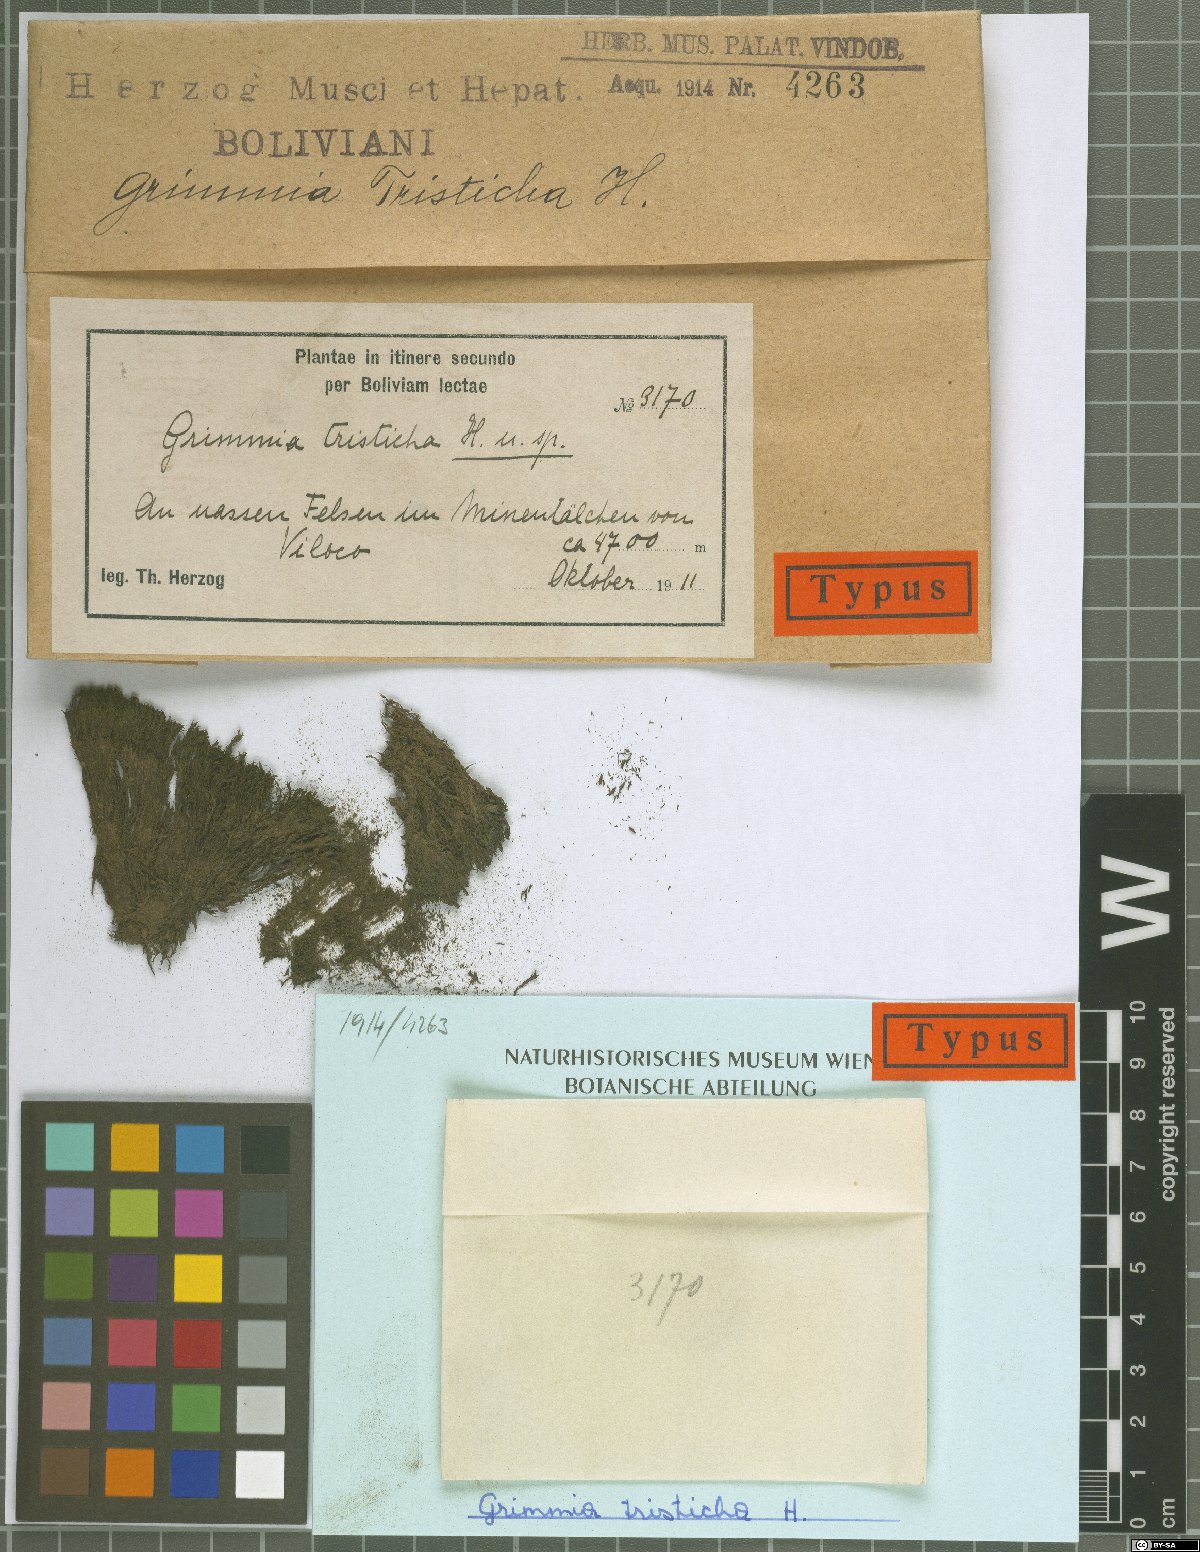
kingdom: Plantae
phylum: Bryophyta
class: Bryopsida
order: Grimmiales
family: Grimmiaceae
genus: Grimmia
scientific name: Grimmia atrata
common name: Copper grimmia
